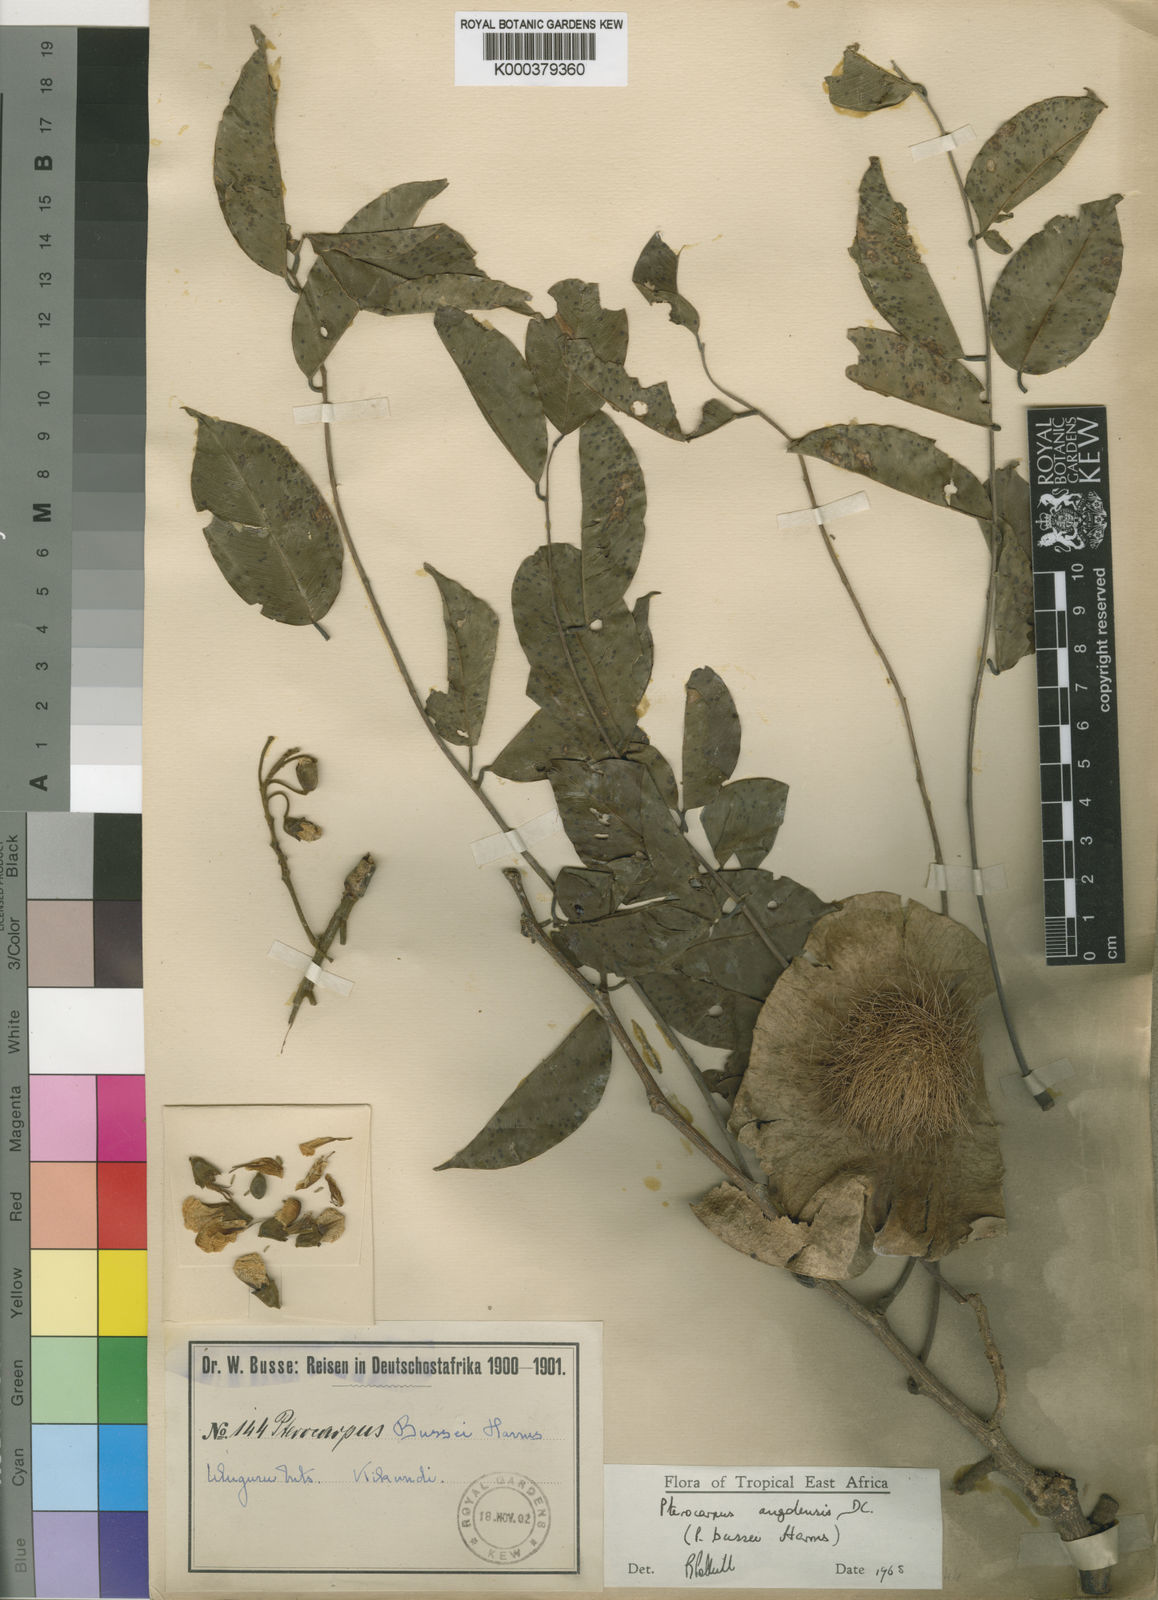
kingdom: Plantae
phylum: Tracheophyta
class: Magnoliopsida
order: Fabales
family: Fabaceae
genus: Pterocarpus
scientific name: Pterocarpus angolensis
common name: Bloodwood tree
